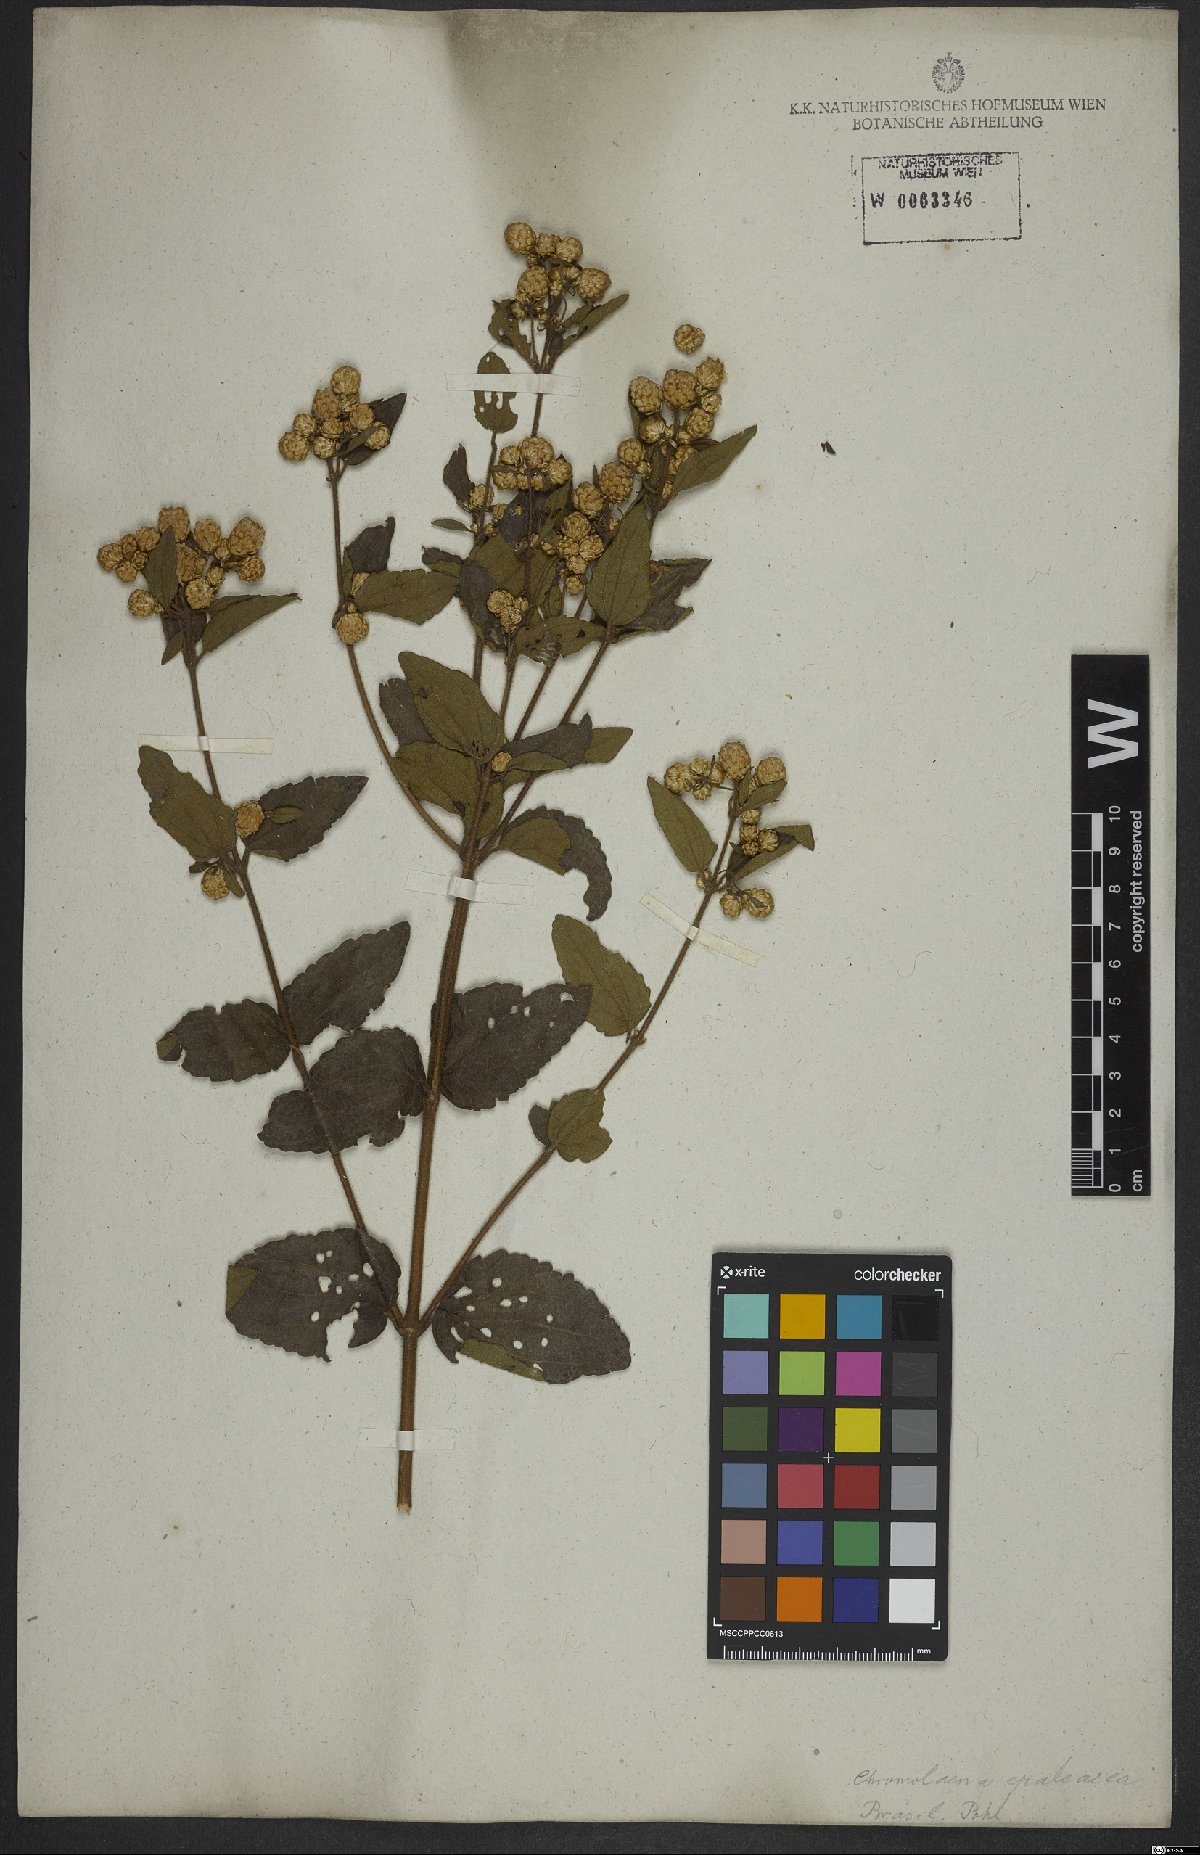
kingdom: Plantae
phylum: Tracheophyta
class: Magnoliopsida
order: Asterales
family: Asteraceae
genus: Chromolaena
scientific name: Chromolaena epaleacea
